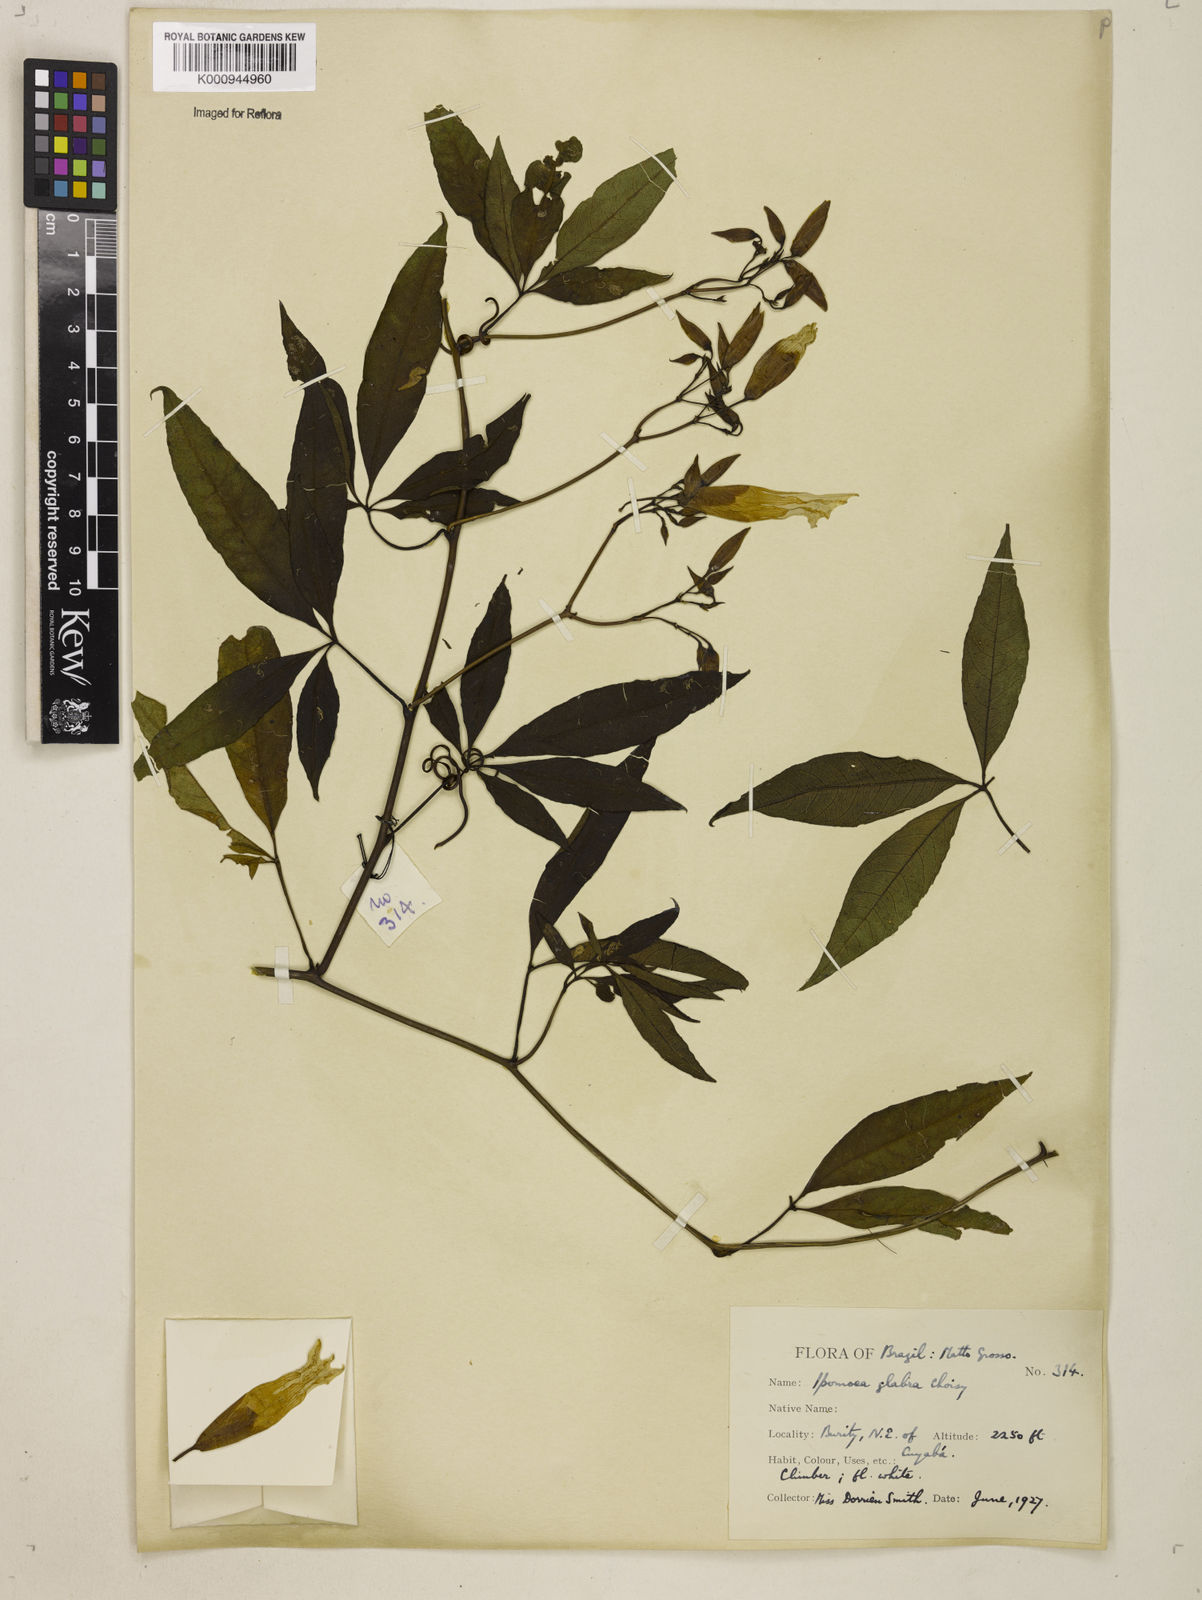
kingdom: Plantae
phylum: Tracheophyta
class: Magnoliopsida
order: Solanales
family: Convolvulaceae
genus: Distimake
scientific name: Distimake macrocalyx
